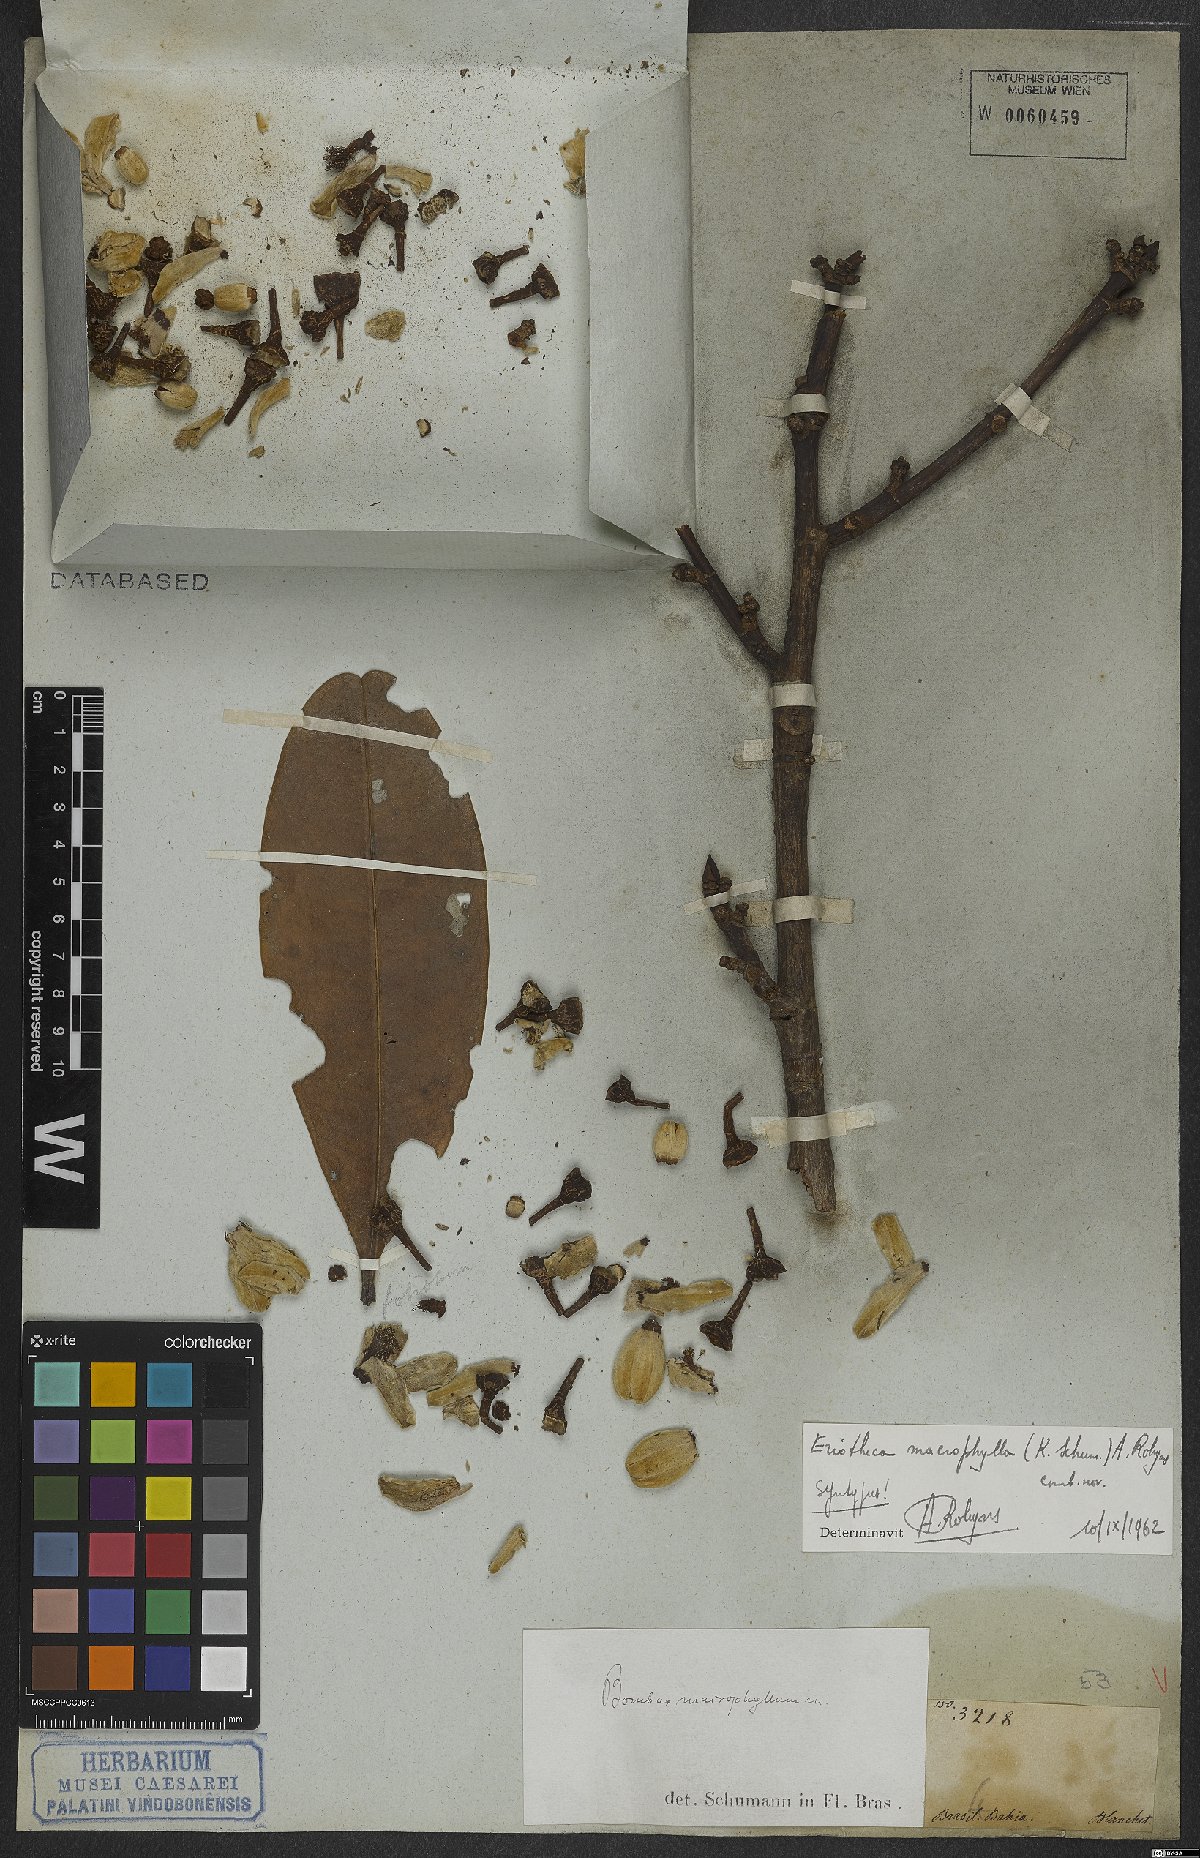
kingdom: Plantae
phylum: Tracheophyta
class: Magnoliopsida
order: Malvales
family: Malvaceae
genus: Eriotheca
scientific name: Eriotheca macrophylla
